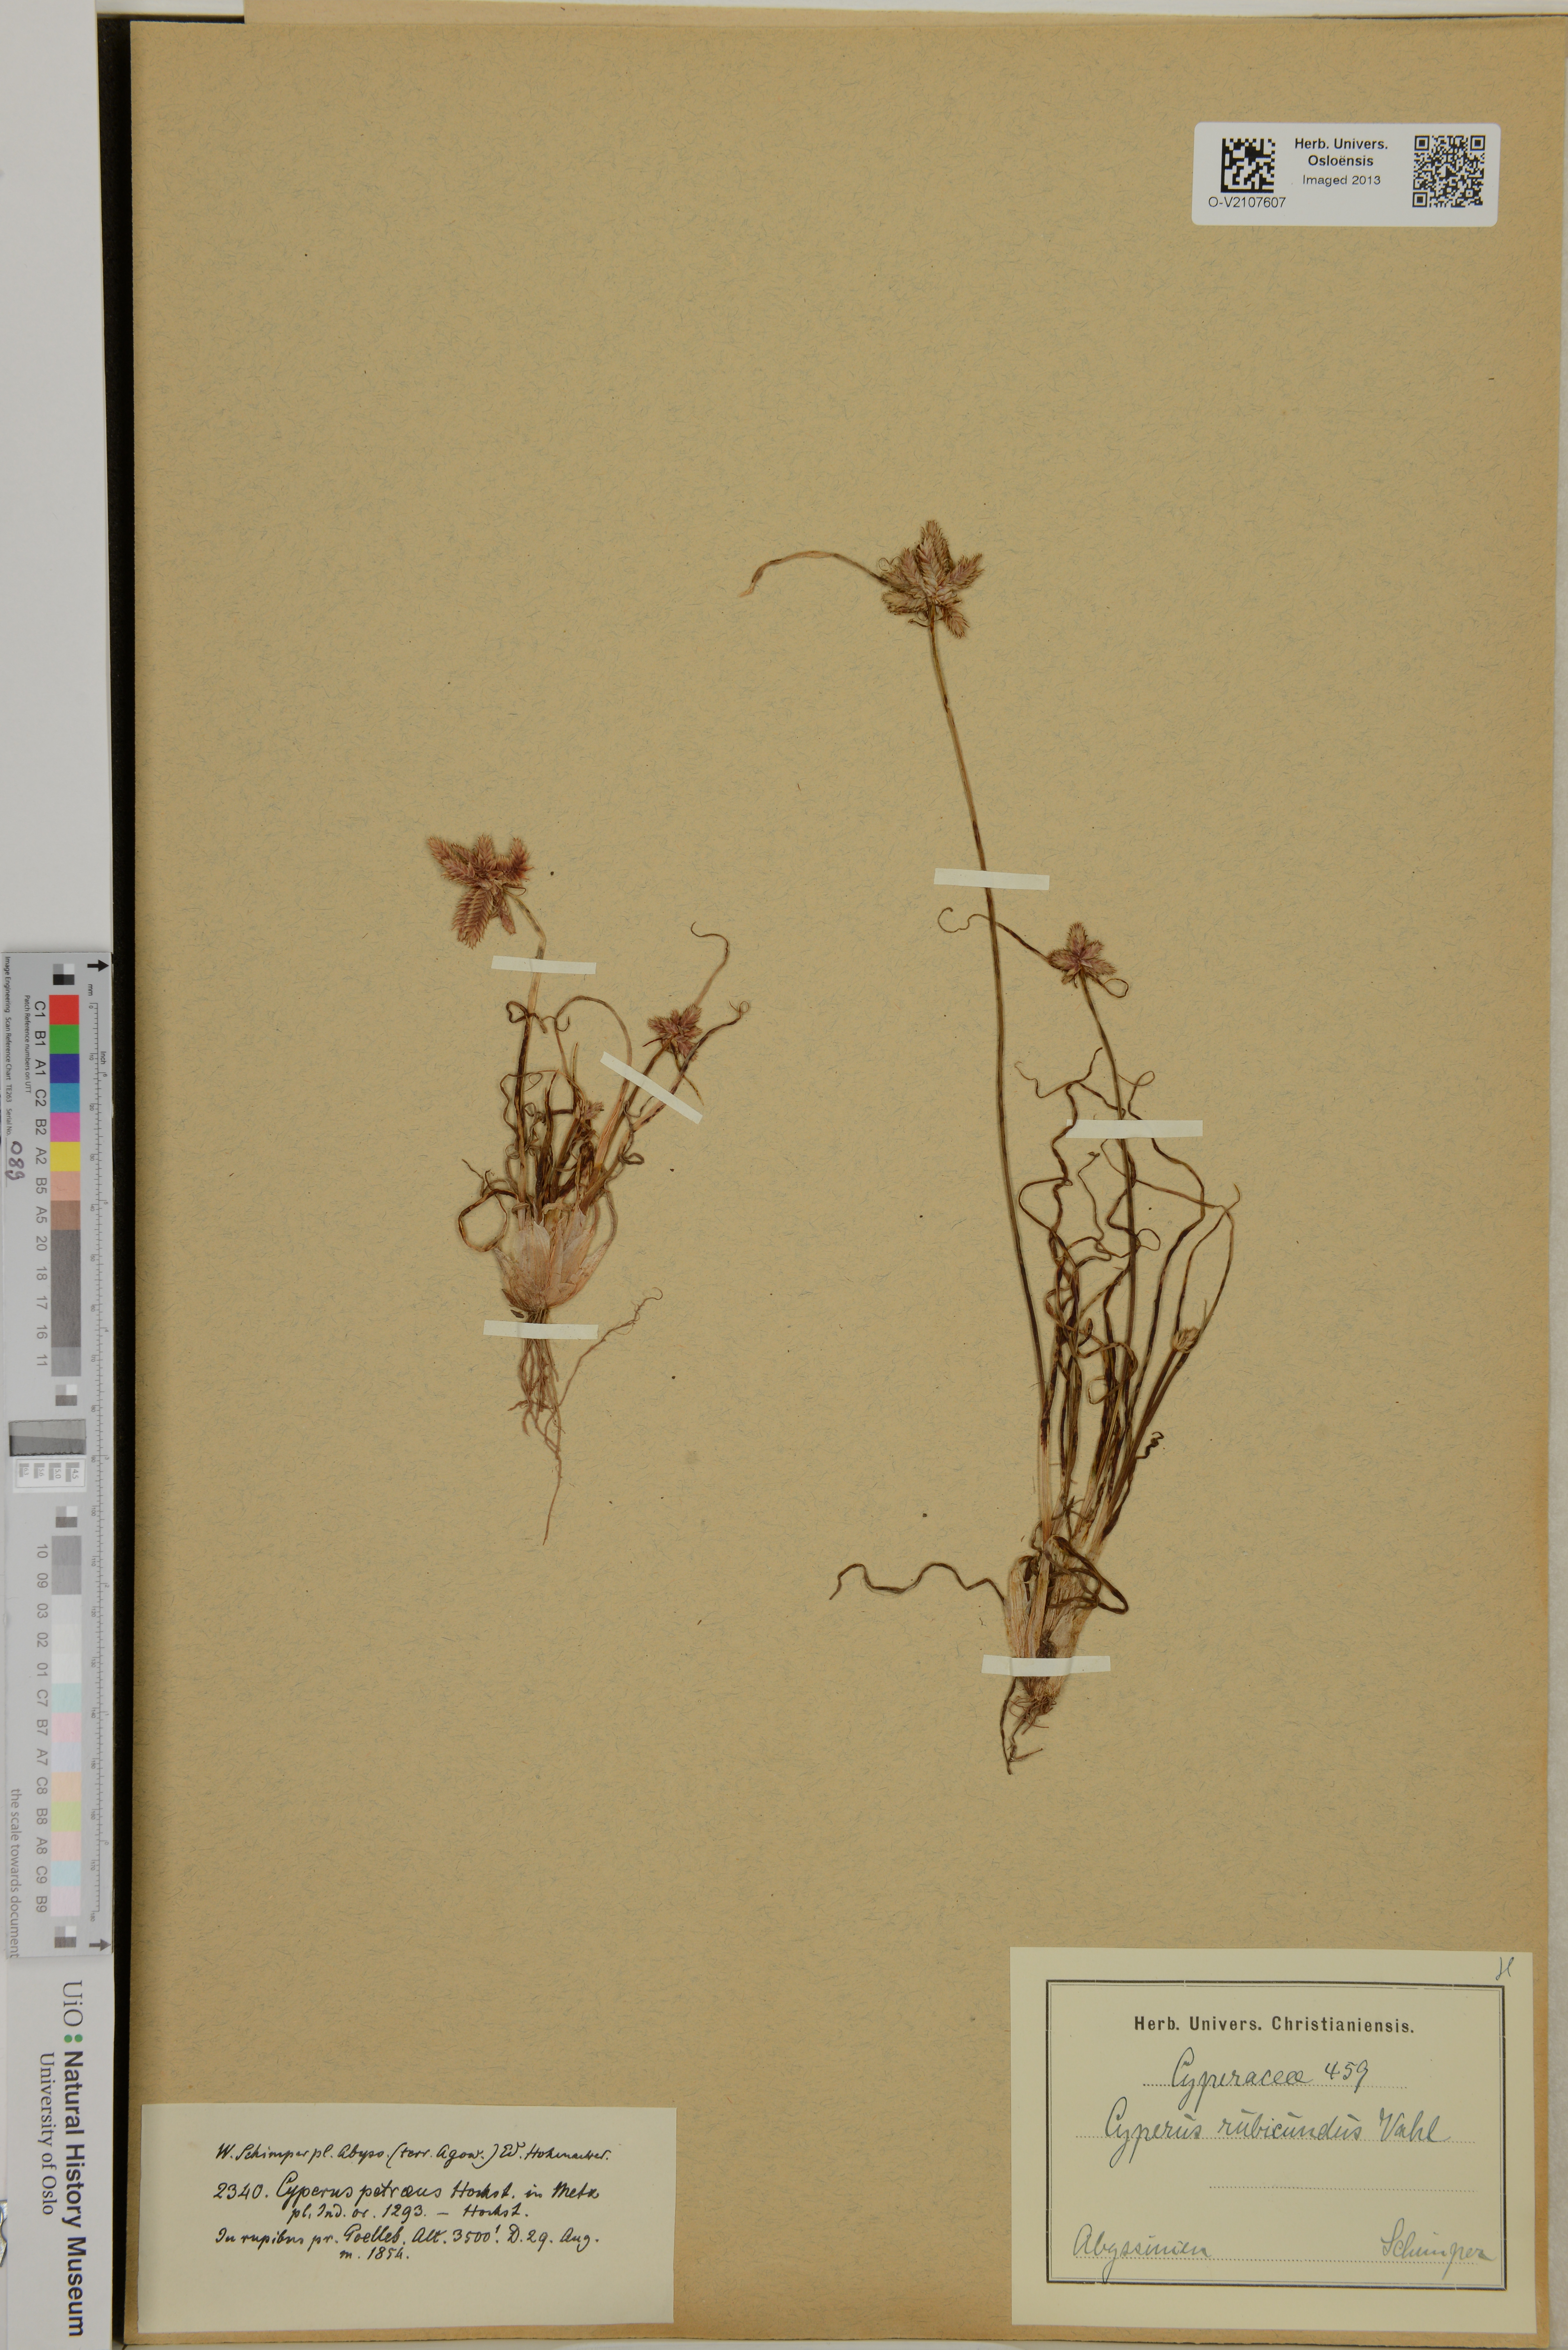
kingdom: Plantae
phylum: Tracheophyta
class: Liliopsida
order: Poales
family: Cyperaceae
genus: Cyperus
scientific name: Cyperus rubicundus
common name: Coco-grass
